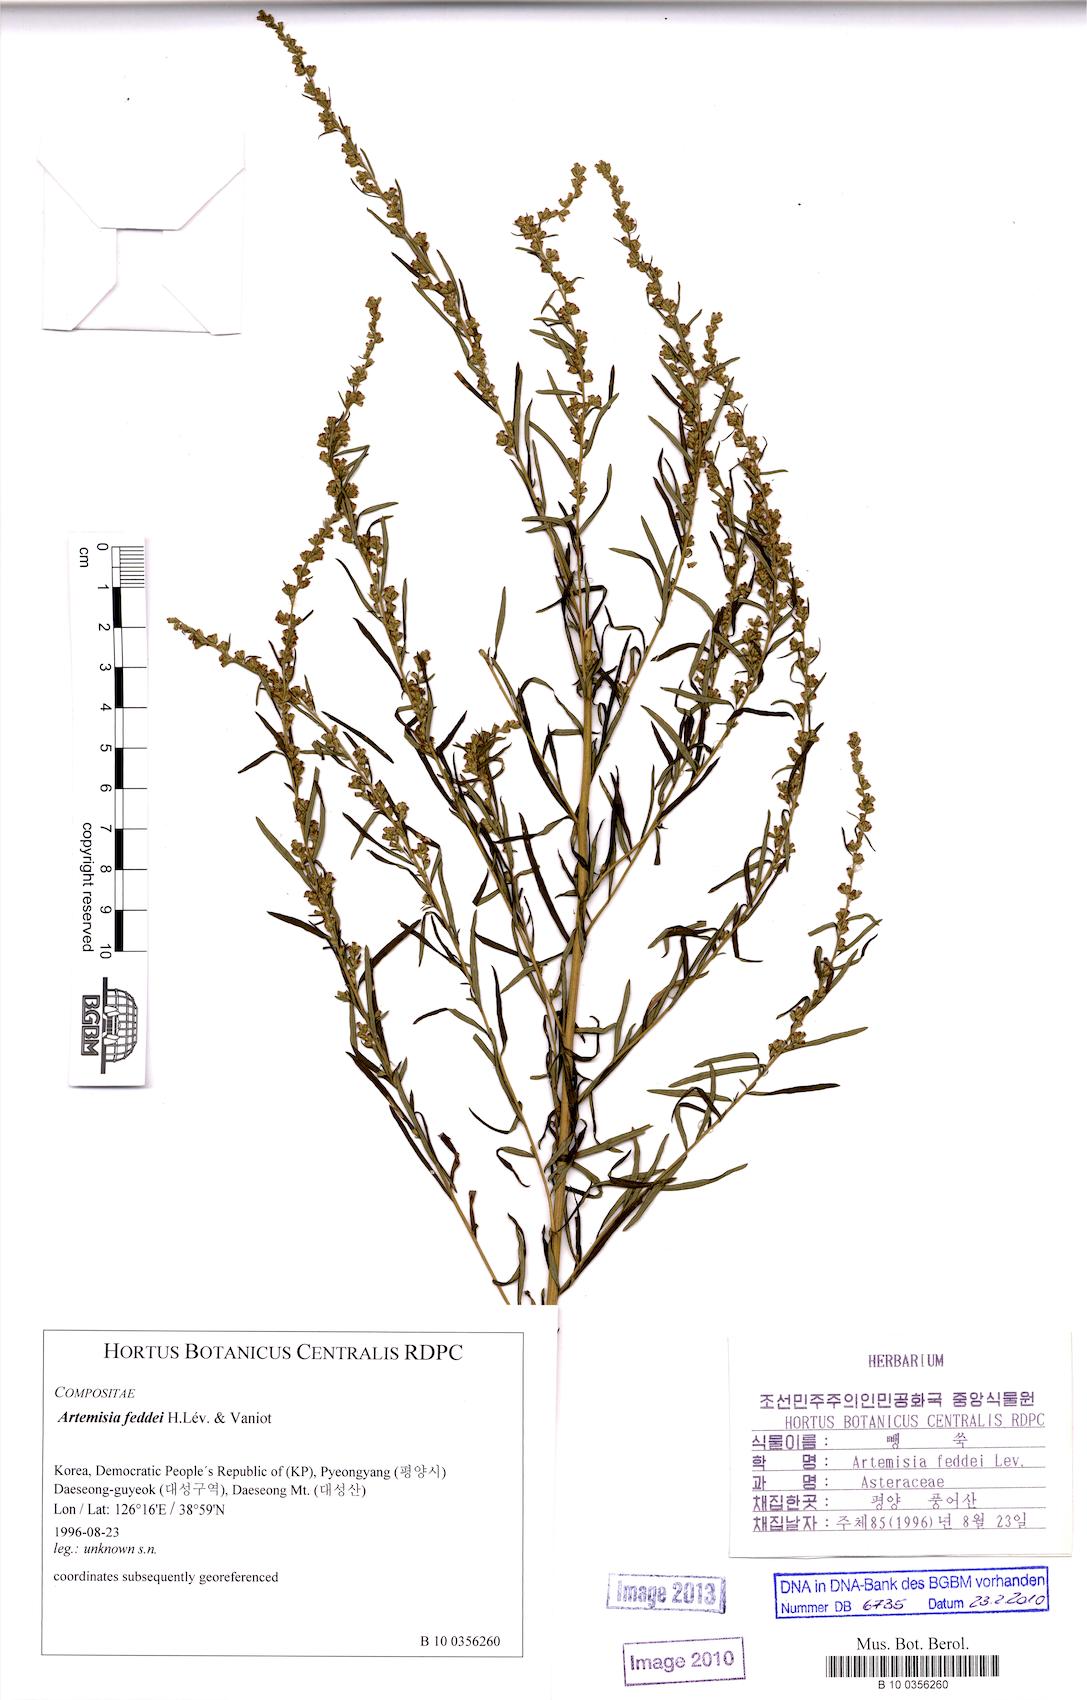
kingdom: Plantae
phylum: Tracheophyta
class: Magnoliopsida
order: Asterales
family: Asteraceae
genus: Artemisia
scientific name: Artemisia lancea
